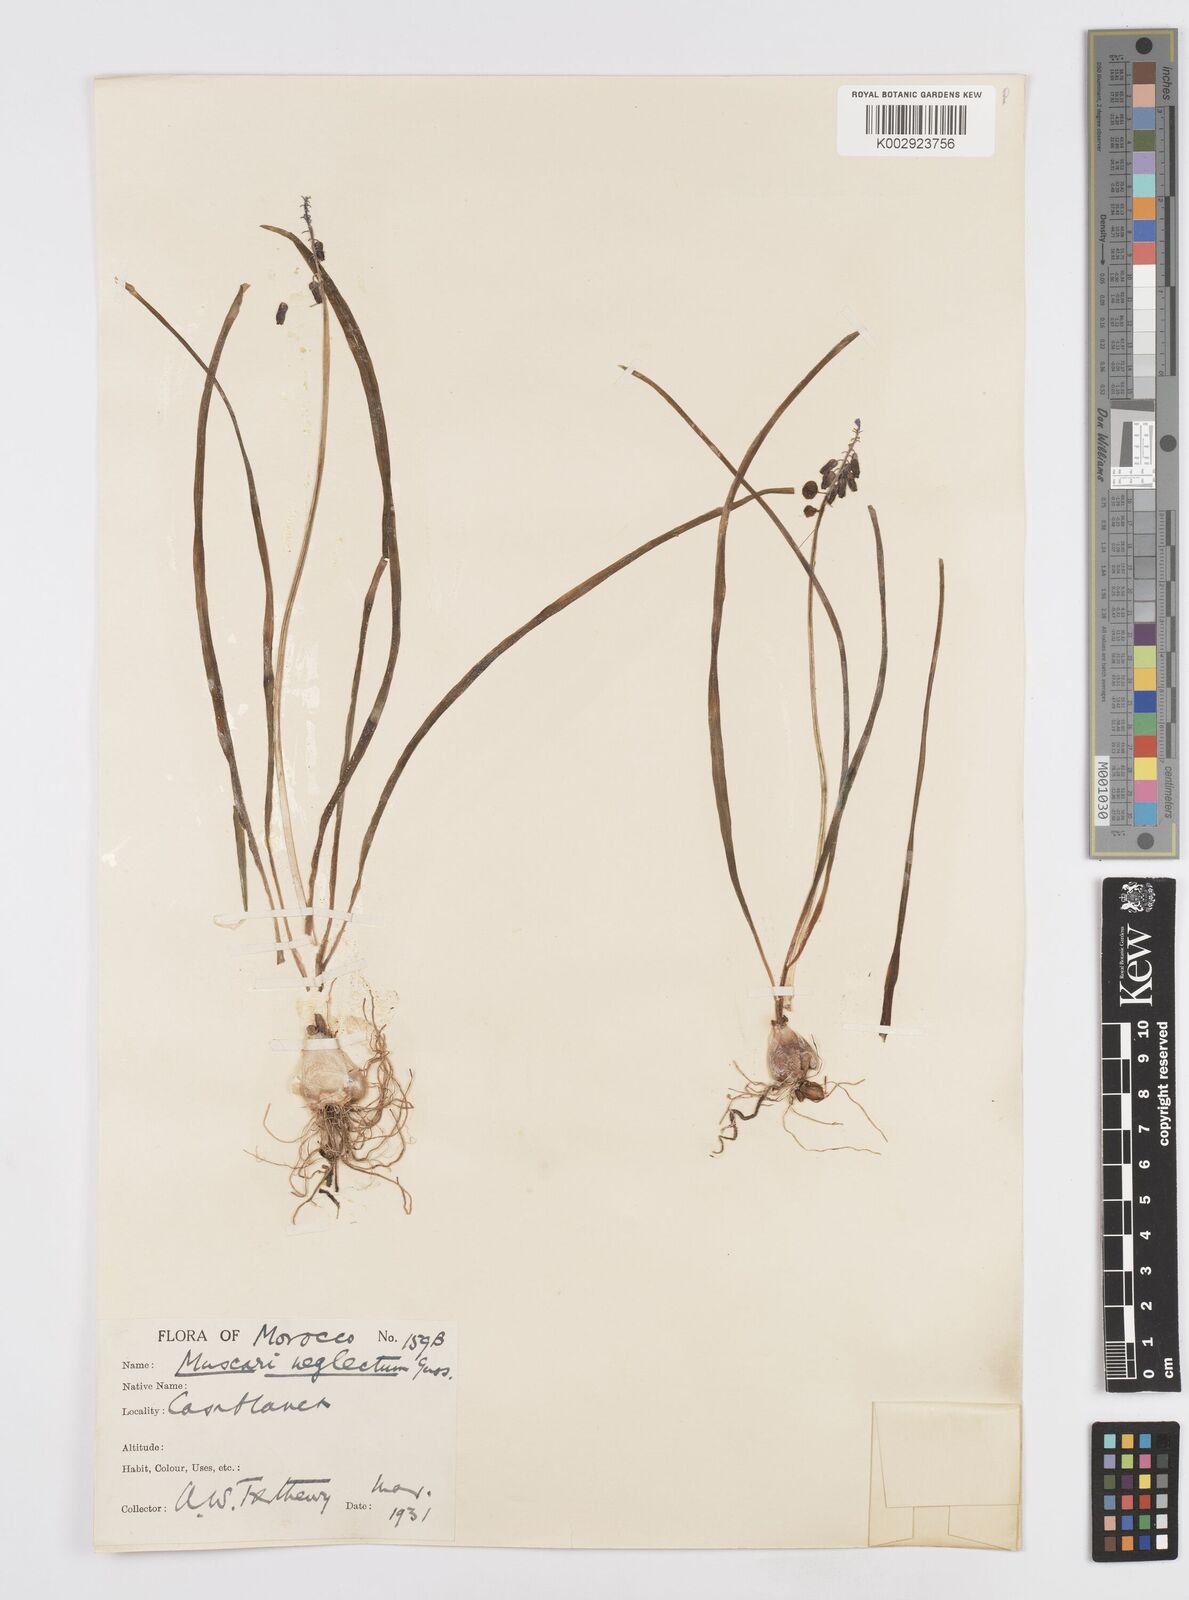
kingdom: Plantae
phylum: Tracheophyta
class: Liliopsida
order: Asparagales
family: Asparagaceae
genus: Muscari
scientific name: Muscari neglectum
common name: Grape-hyacinth
